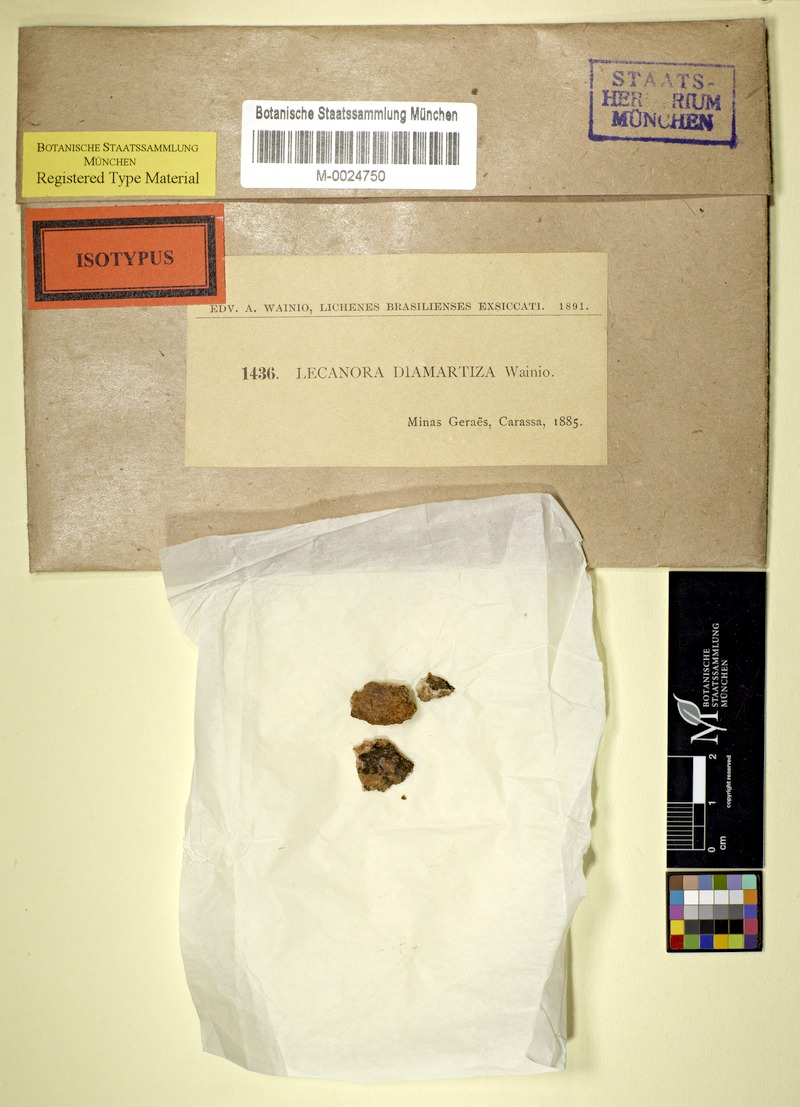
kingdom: Fungi
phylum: Ascomycota
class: Lecanoromycetes
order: Pertusariales
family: Megasporaceae
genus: Aspicilia
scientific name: Aspicilia
